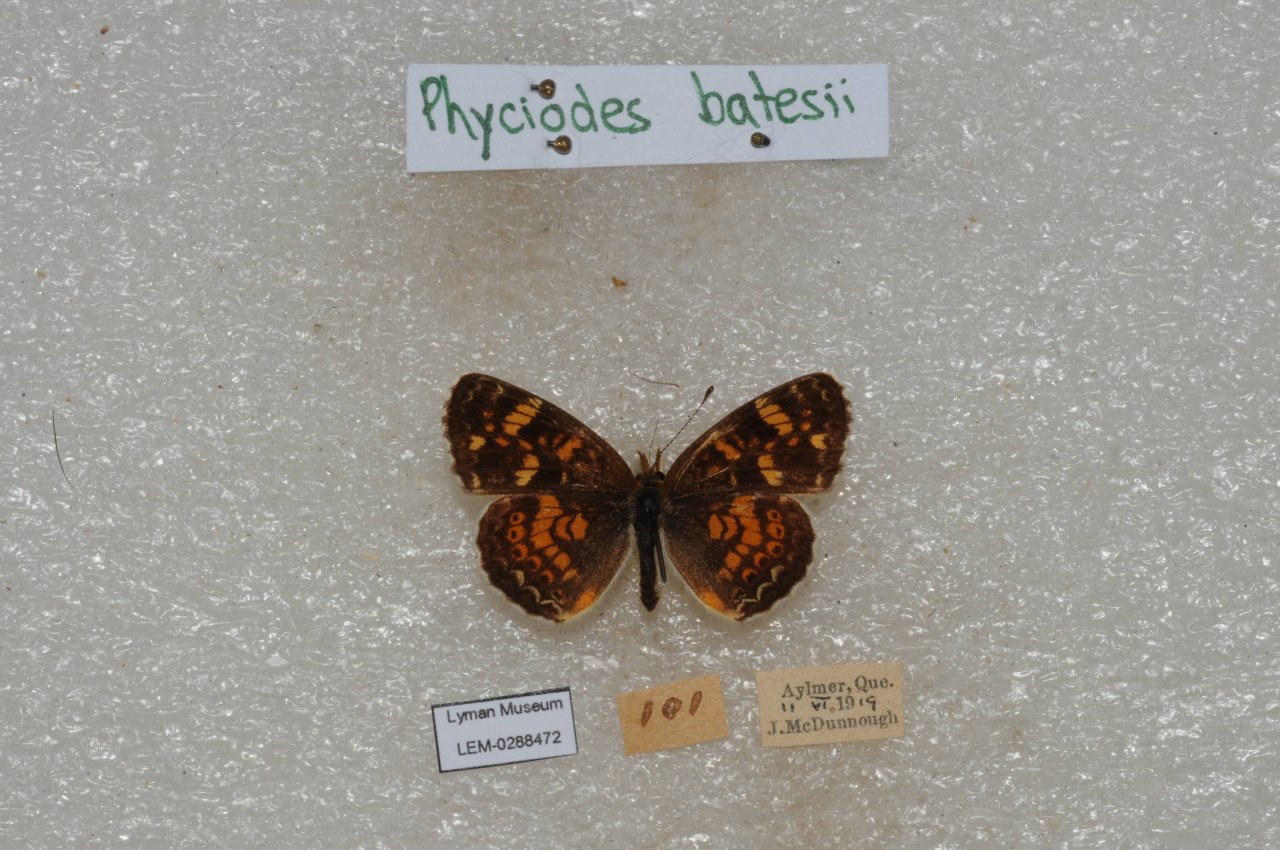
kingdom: Animalia
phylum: Arthropoda
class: Insecta
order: Lepidoptera
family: Nymphalidae
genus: Phyciodes
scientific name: Phyciodes batesii
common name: Tawny Crescent
